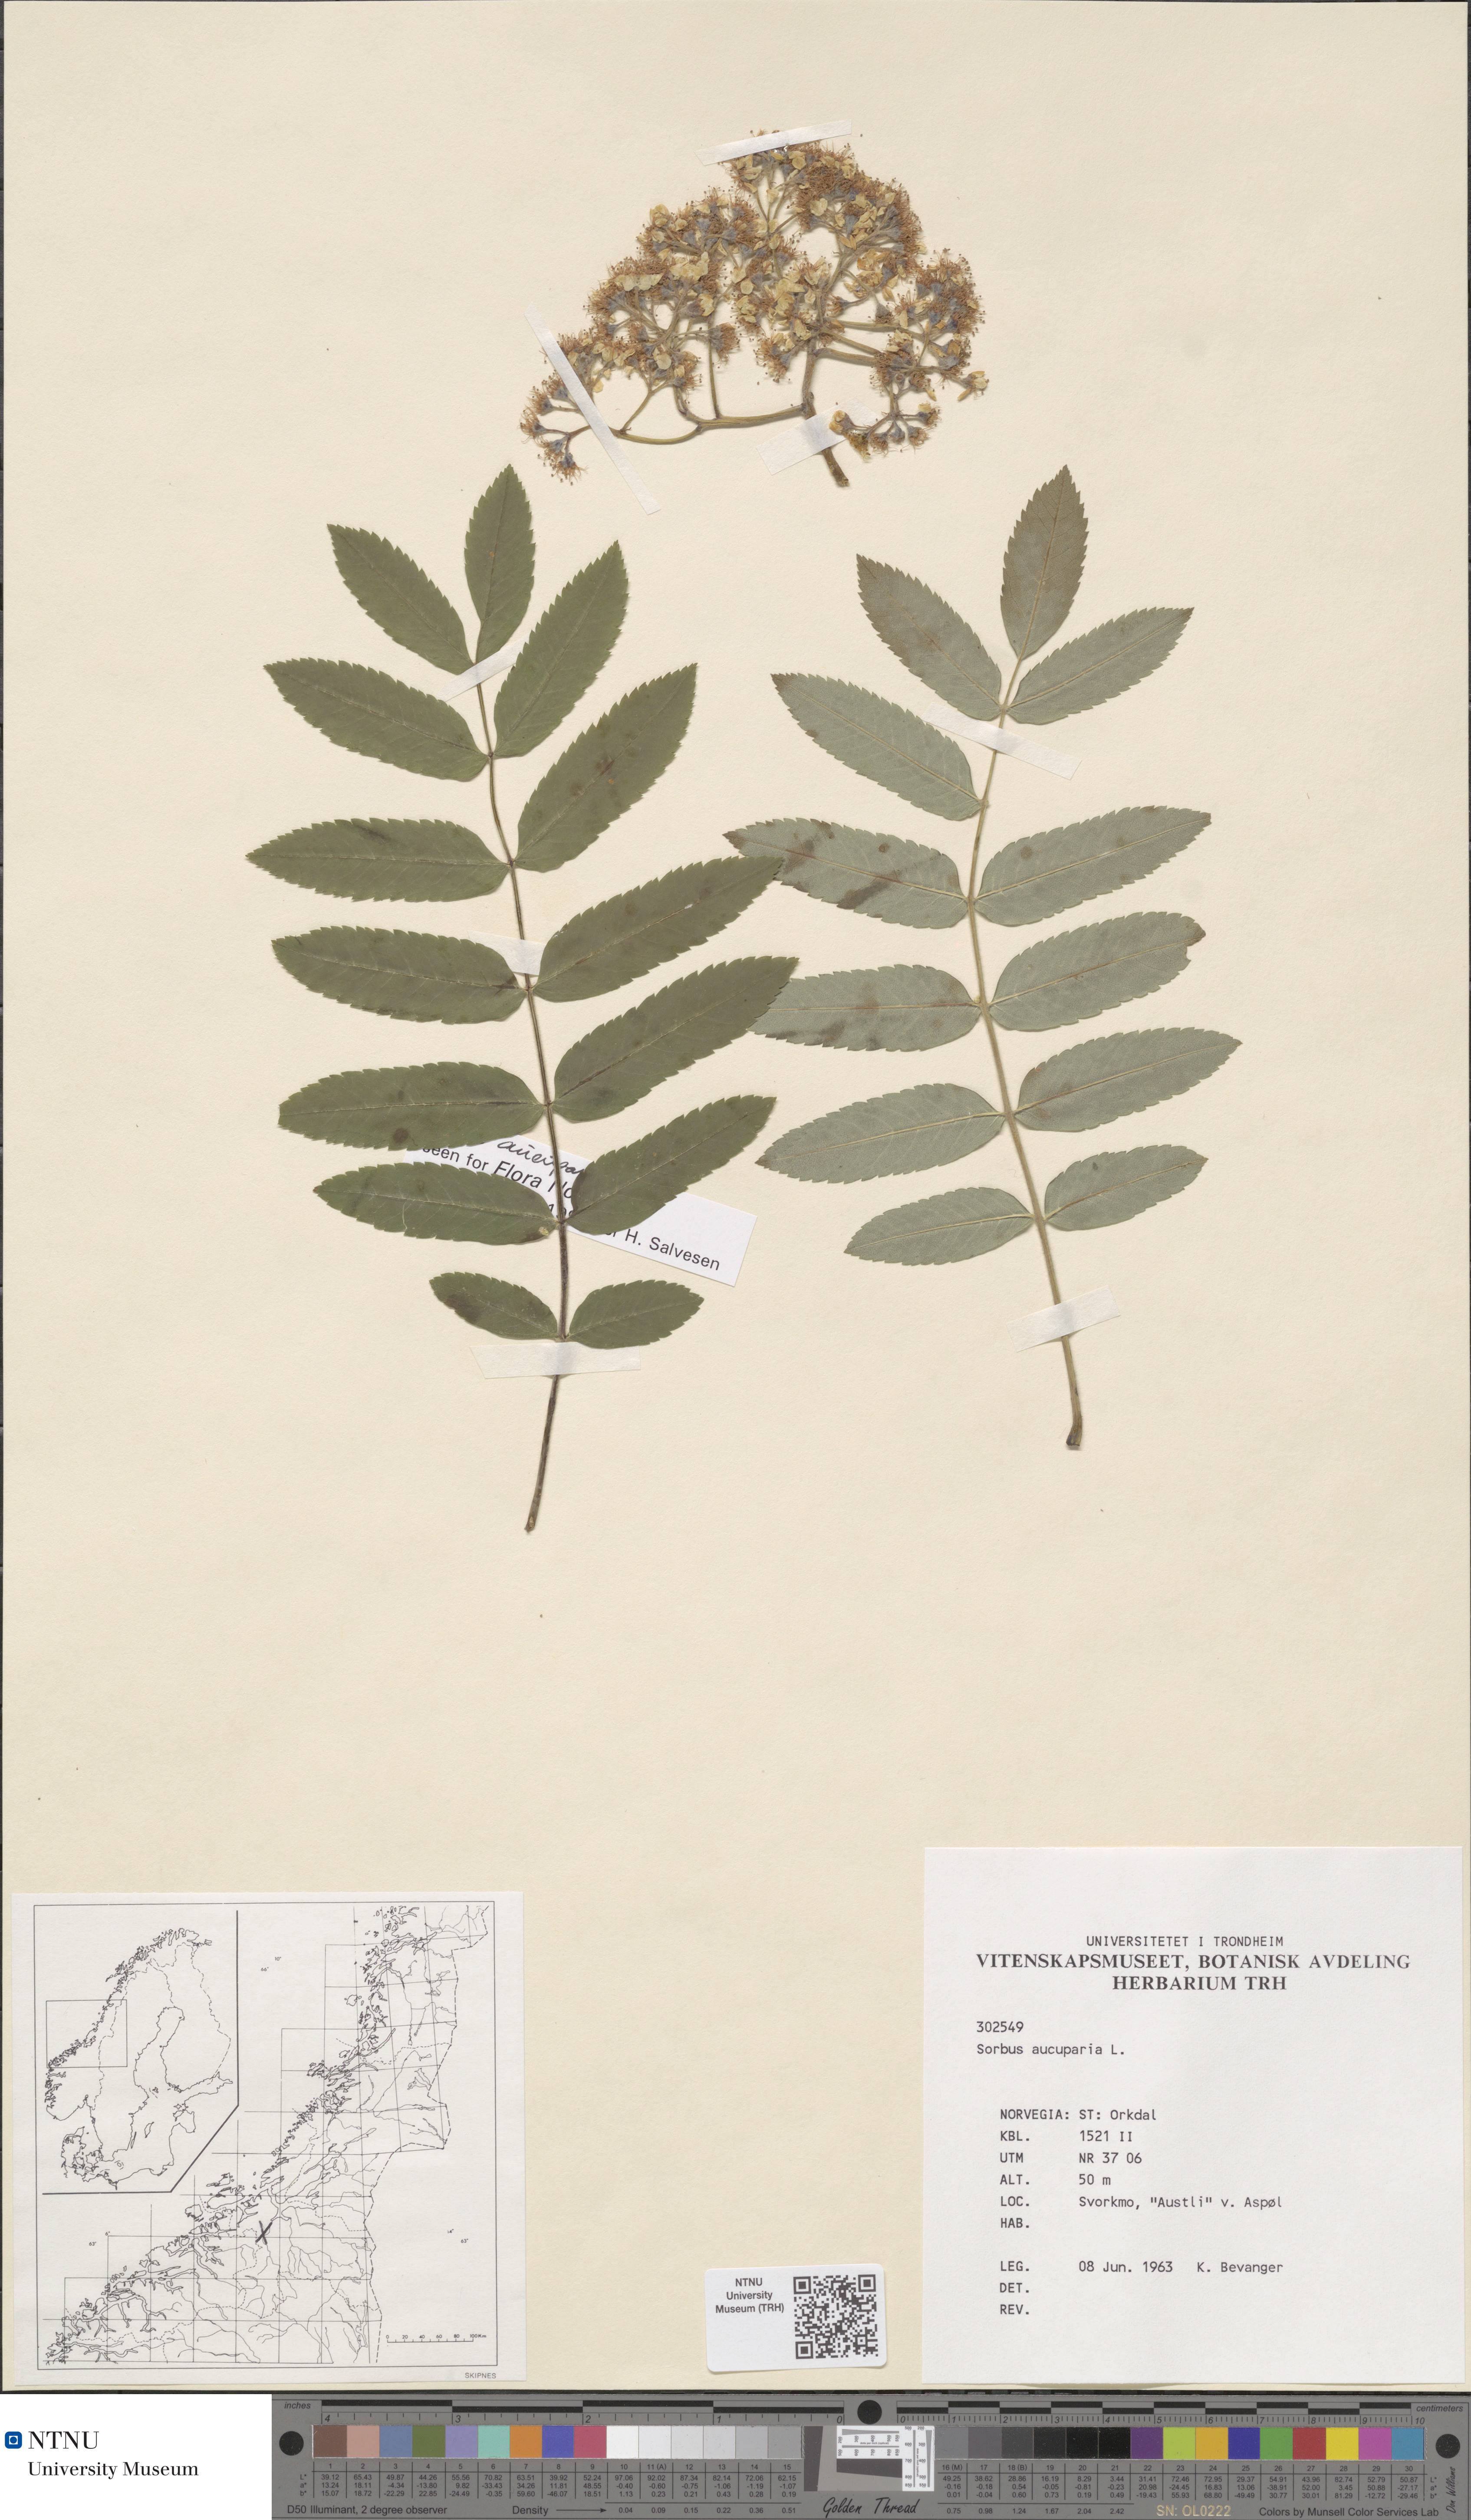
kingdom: Plantae
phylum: Tracheophyta
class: Magnoliopsida
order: Rosales
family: Rosaceae
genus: Sorbus
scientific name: Sorbus aucuparia
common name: Rowan
